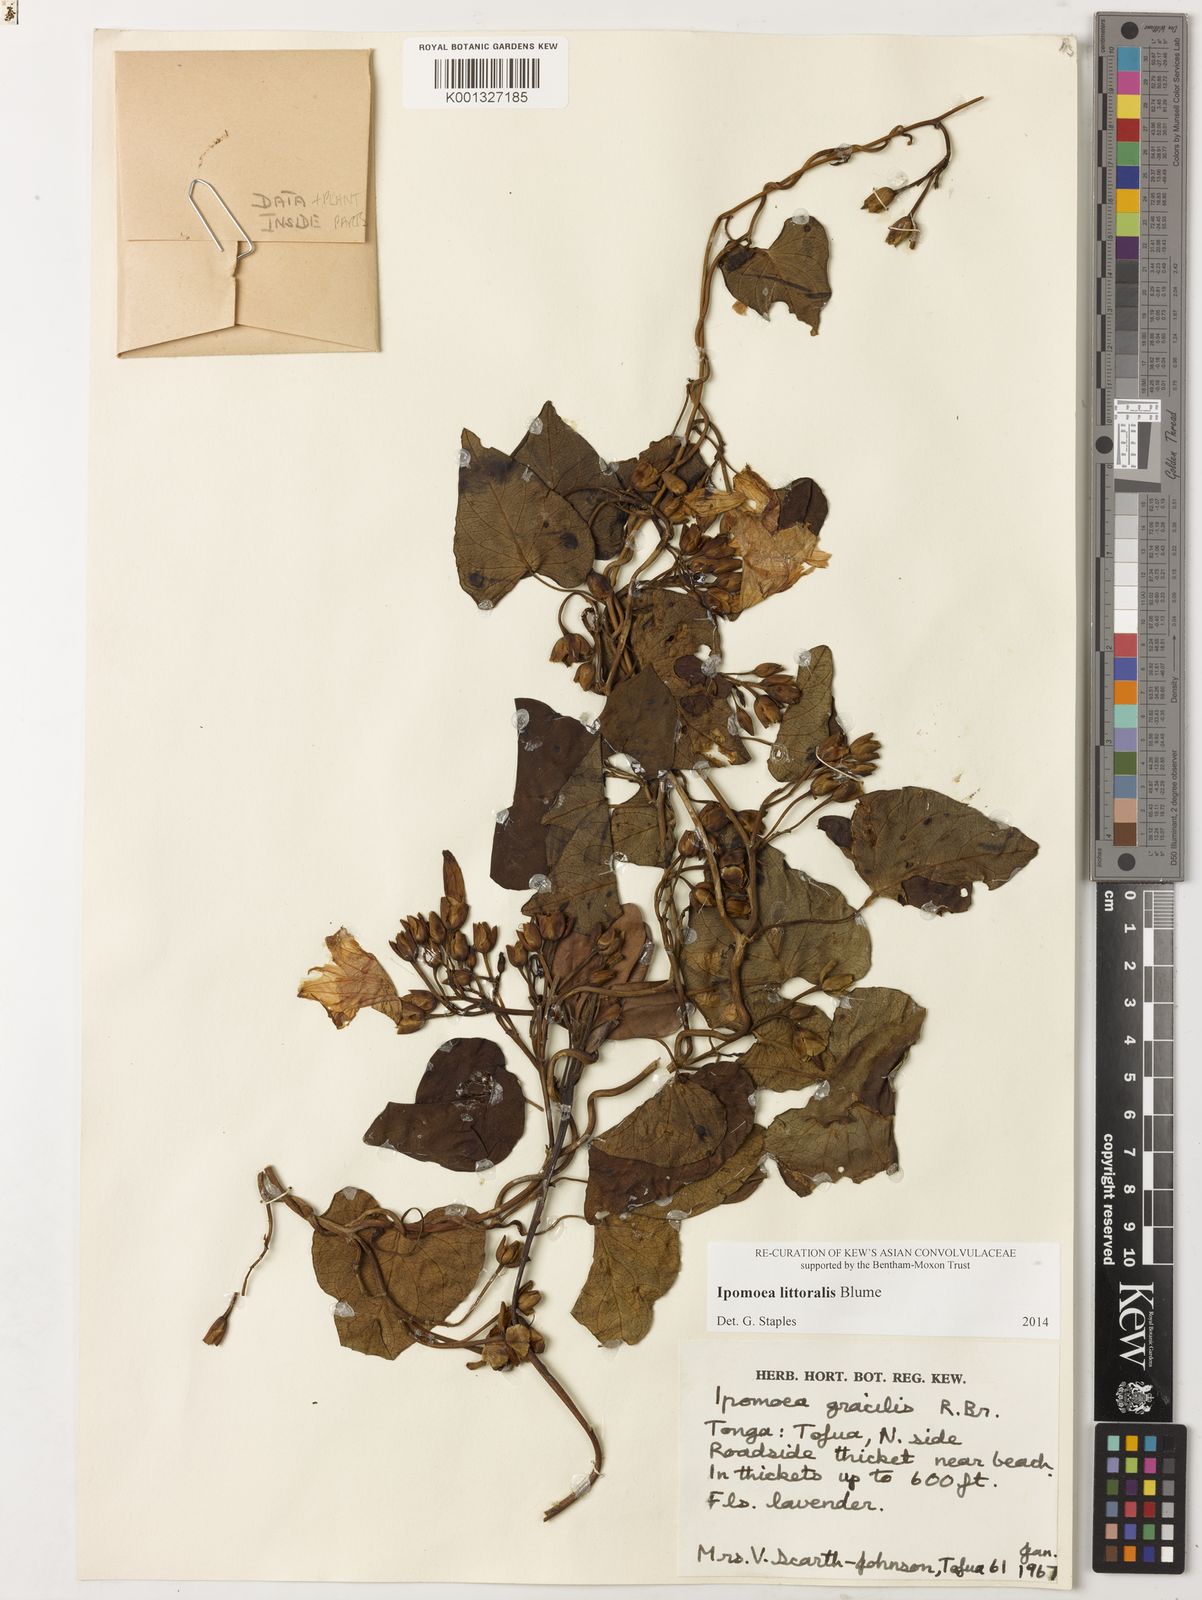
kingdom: Plantae
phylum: Tracheophyta
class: Magnoliopsida
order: Solanales
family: Convolvulaceae
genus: Ipomoea
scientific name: Ipomoea littoralis
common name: Coastal morning glory
